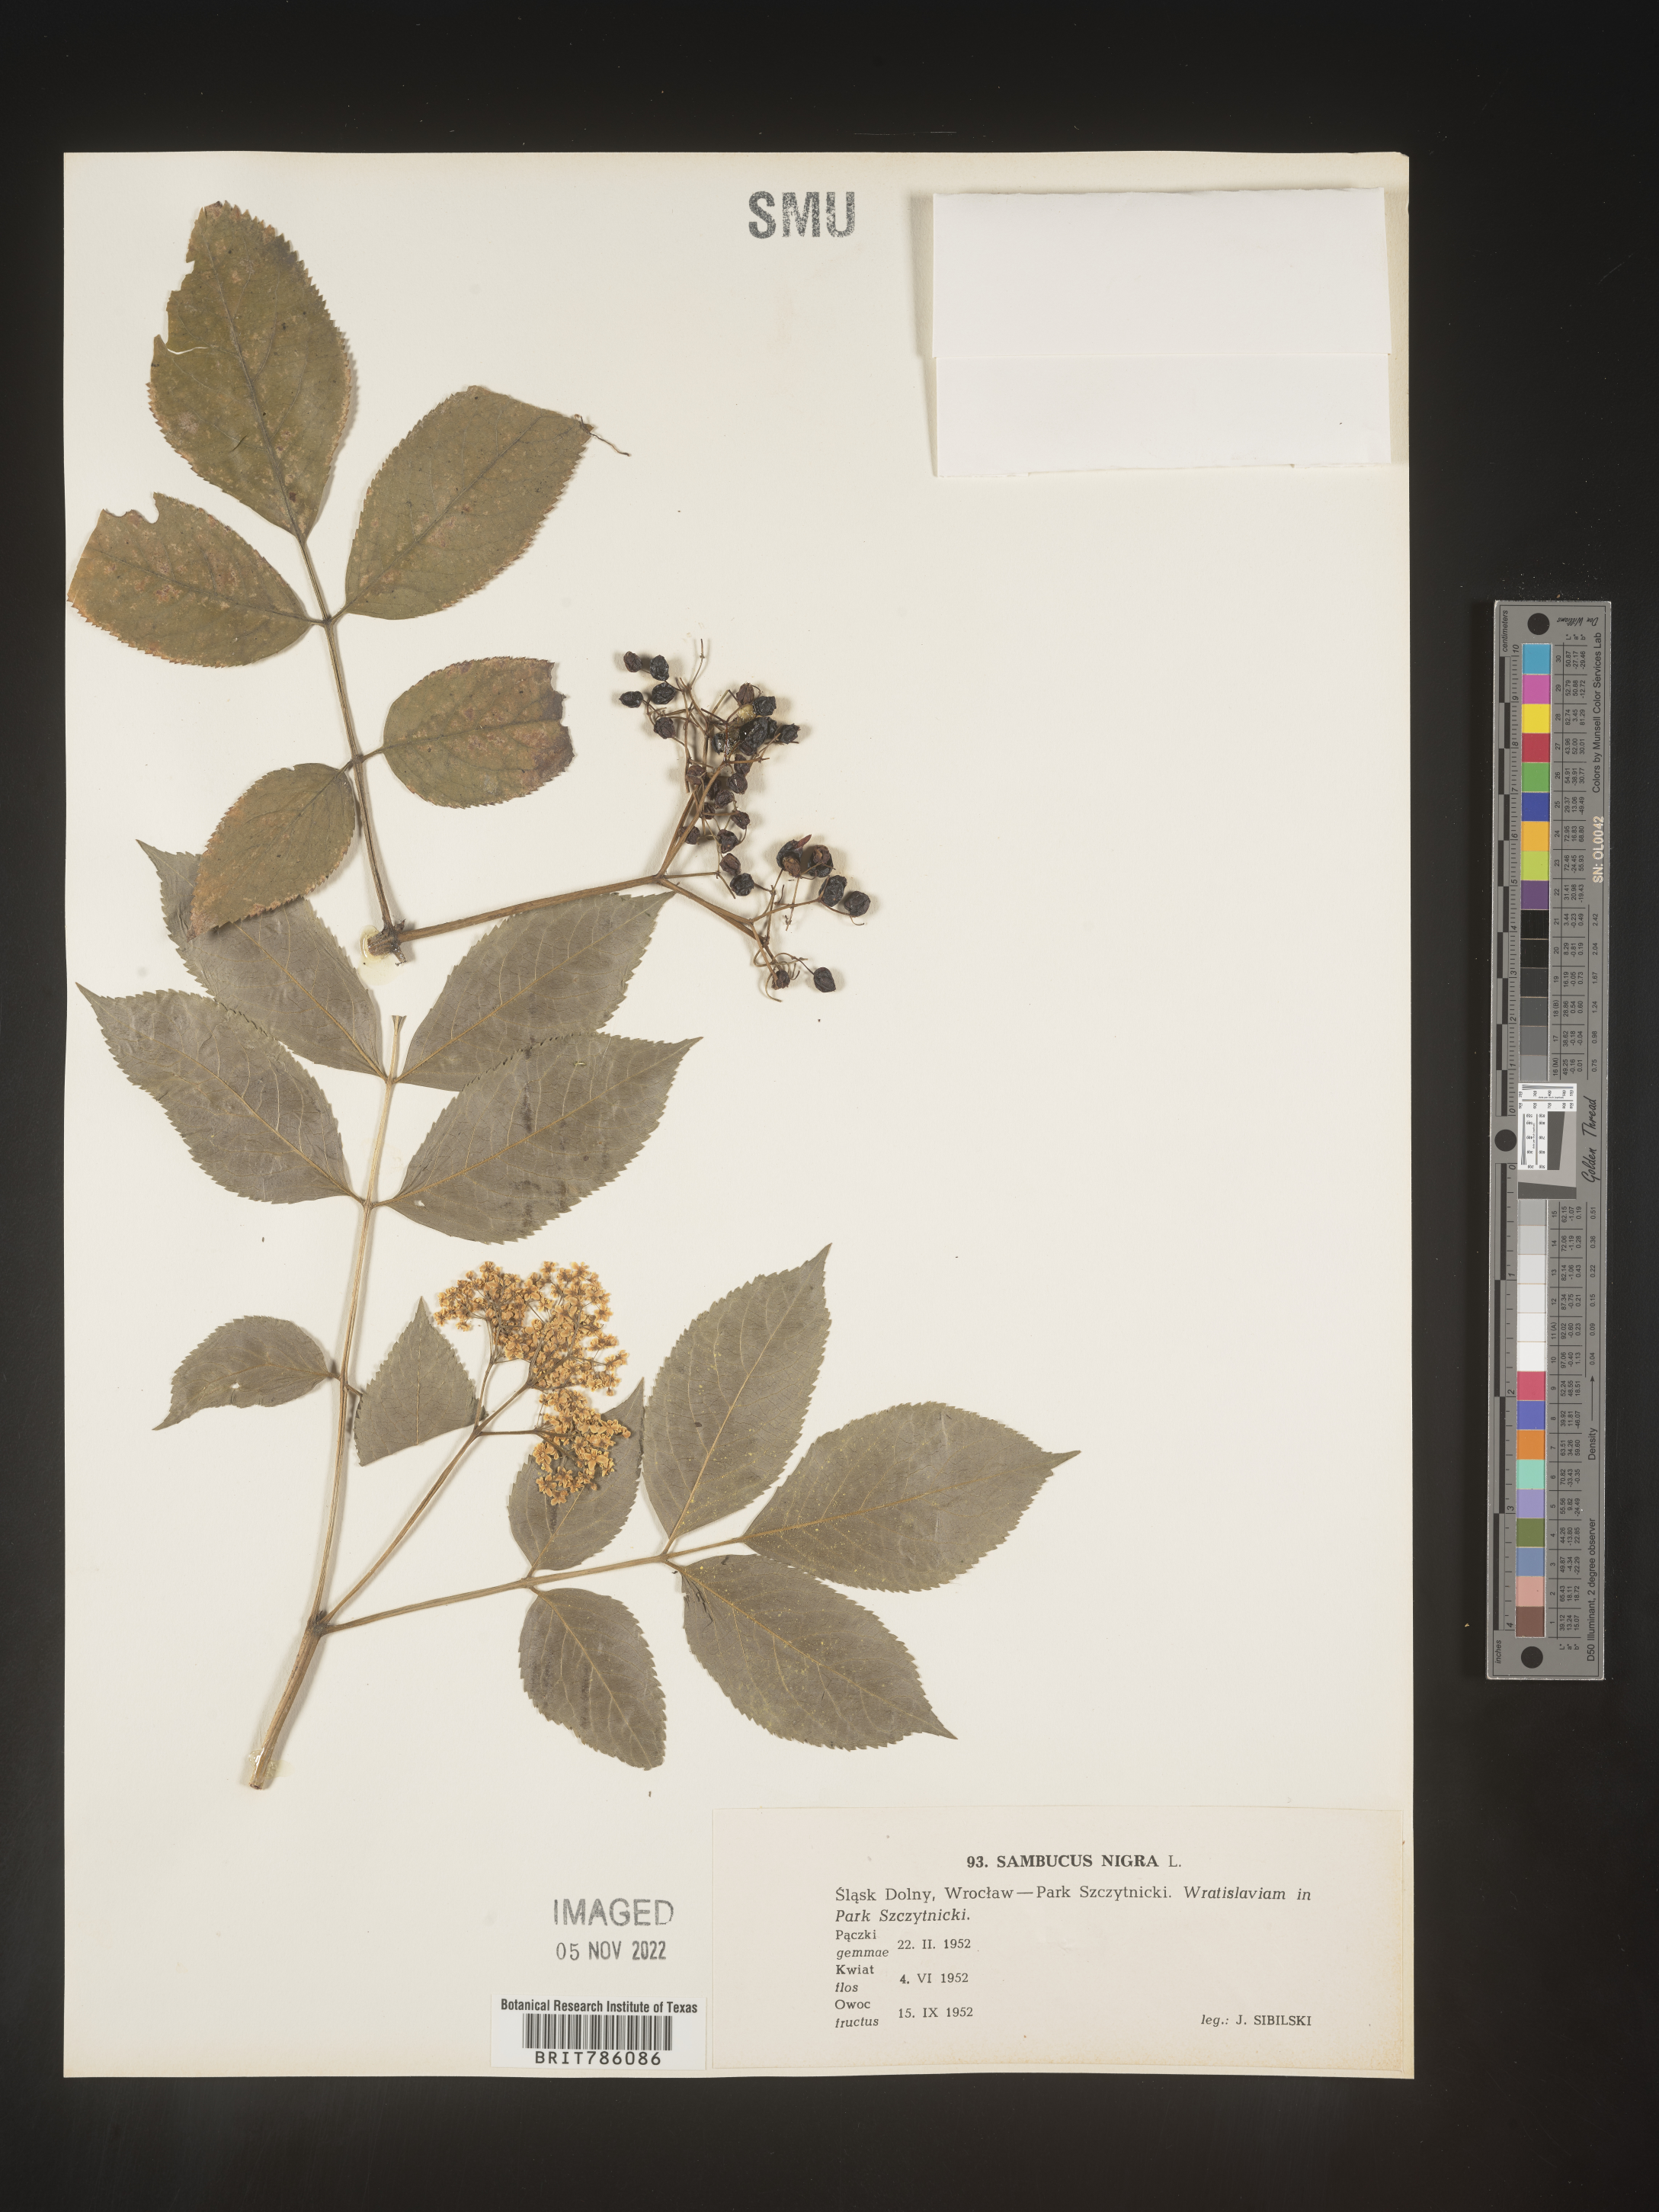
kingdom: Plantae
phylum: Tracheophyta
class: Magnoliopsida
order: Dipsacales
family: Viburnaceae
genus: Sambucus
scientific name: Sambucus
